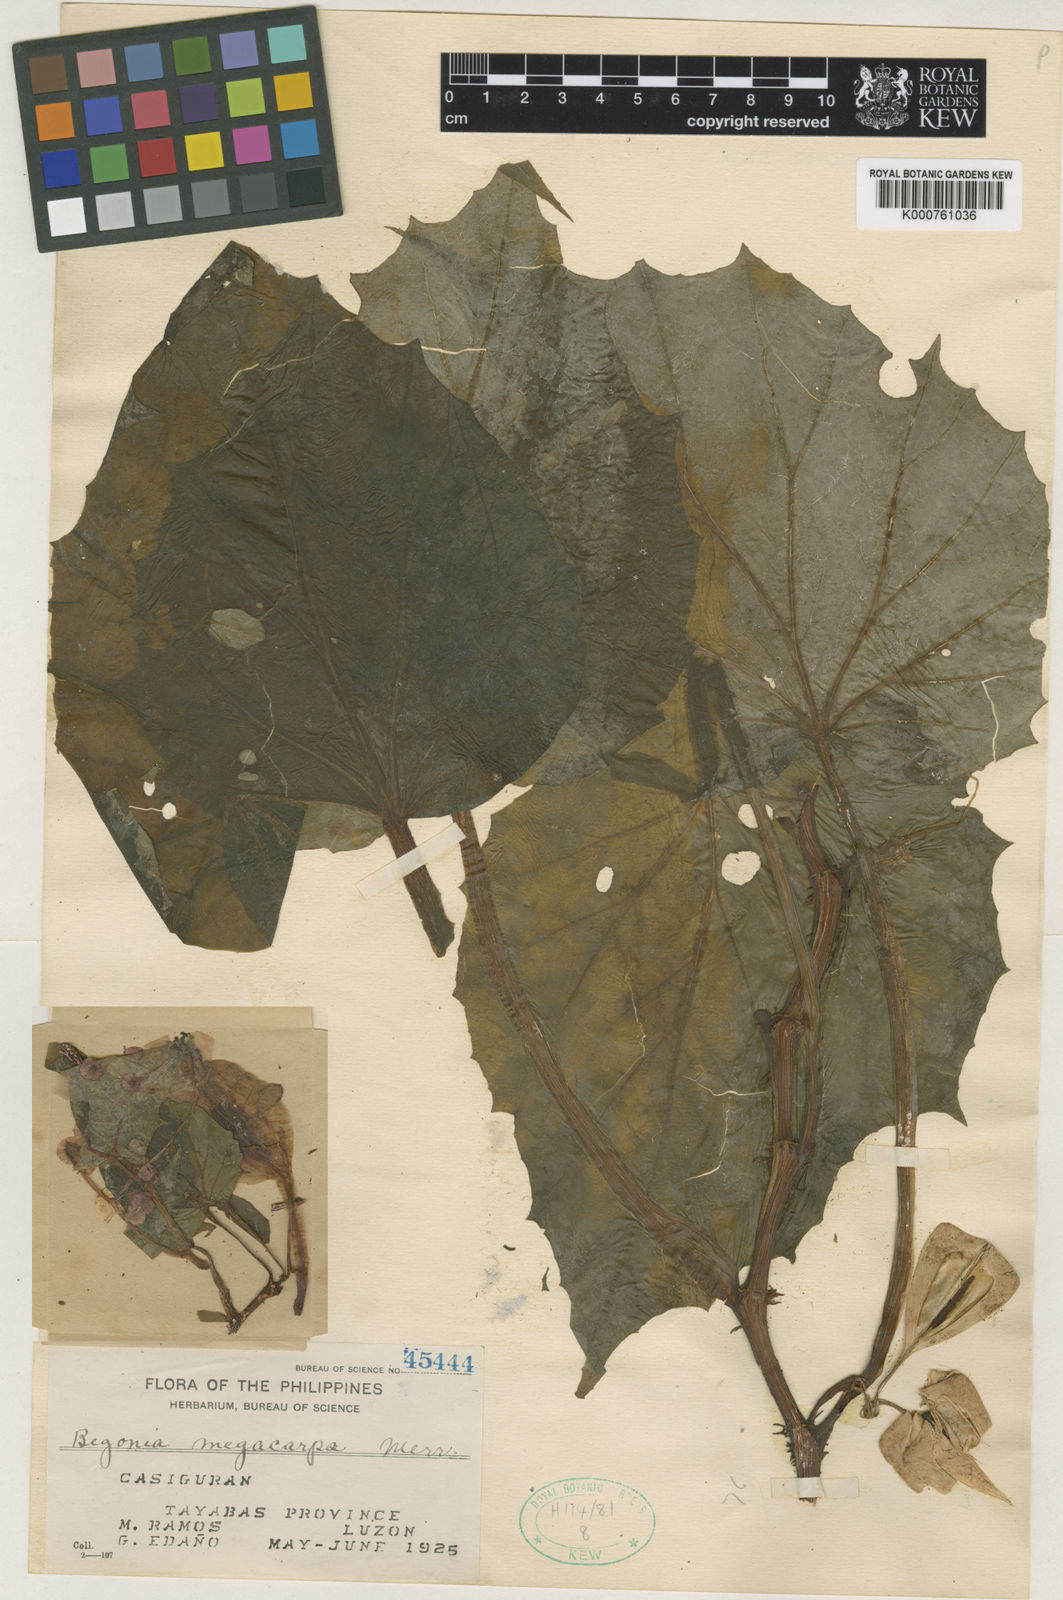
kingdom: Plantae
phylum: Tracheophyta
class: Magnoliopsida
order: Cucurbitales
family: Begoniaceae
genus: Begonia
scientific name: Begonia megacarpa
